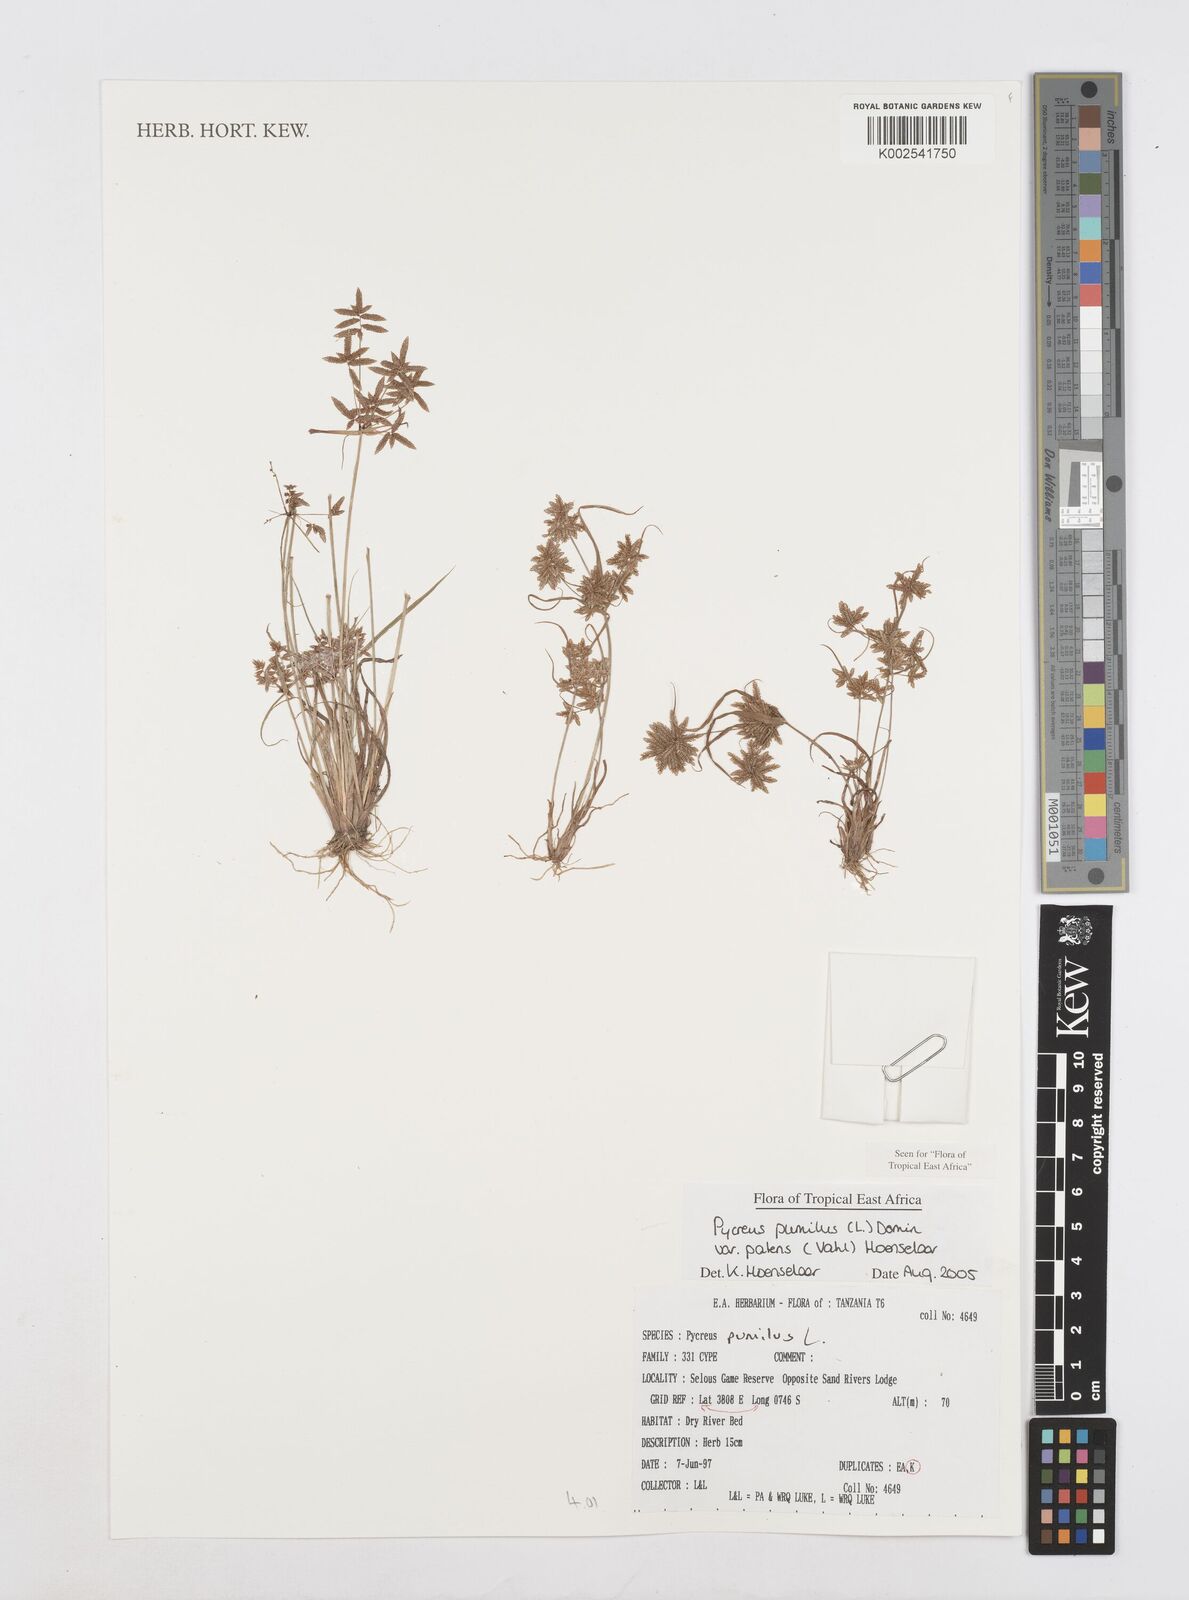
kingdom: Plantae
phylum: Tracheophyta
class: Liliopsida
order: Poales
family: Cyperaceae
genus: Cyperus
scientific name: Cyperus pumilus
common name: Low flatsedge
